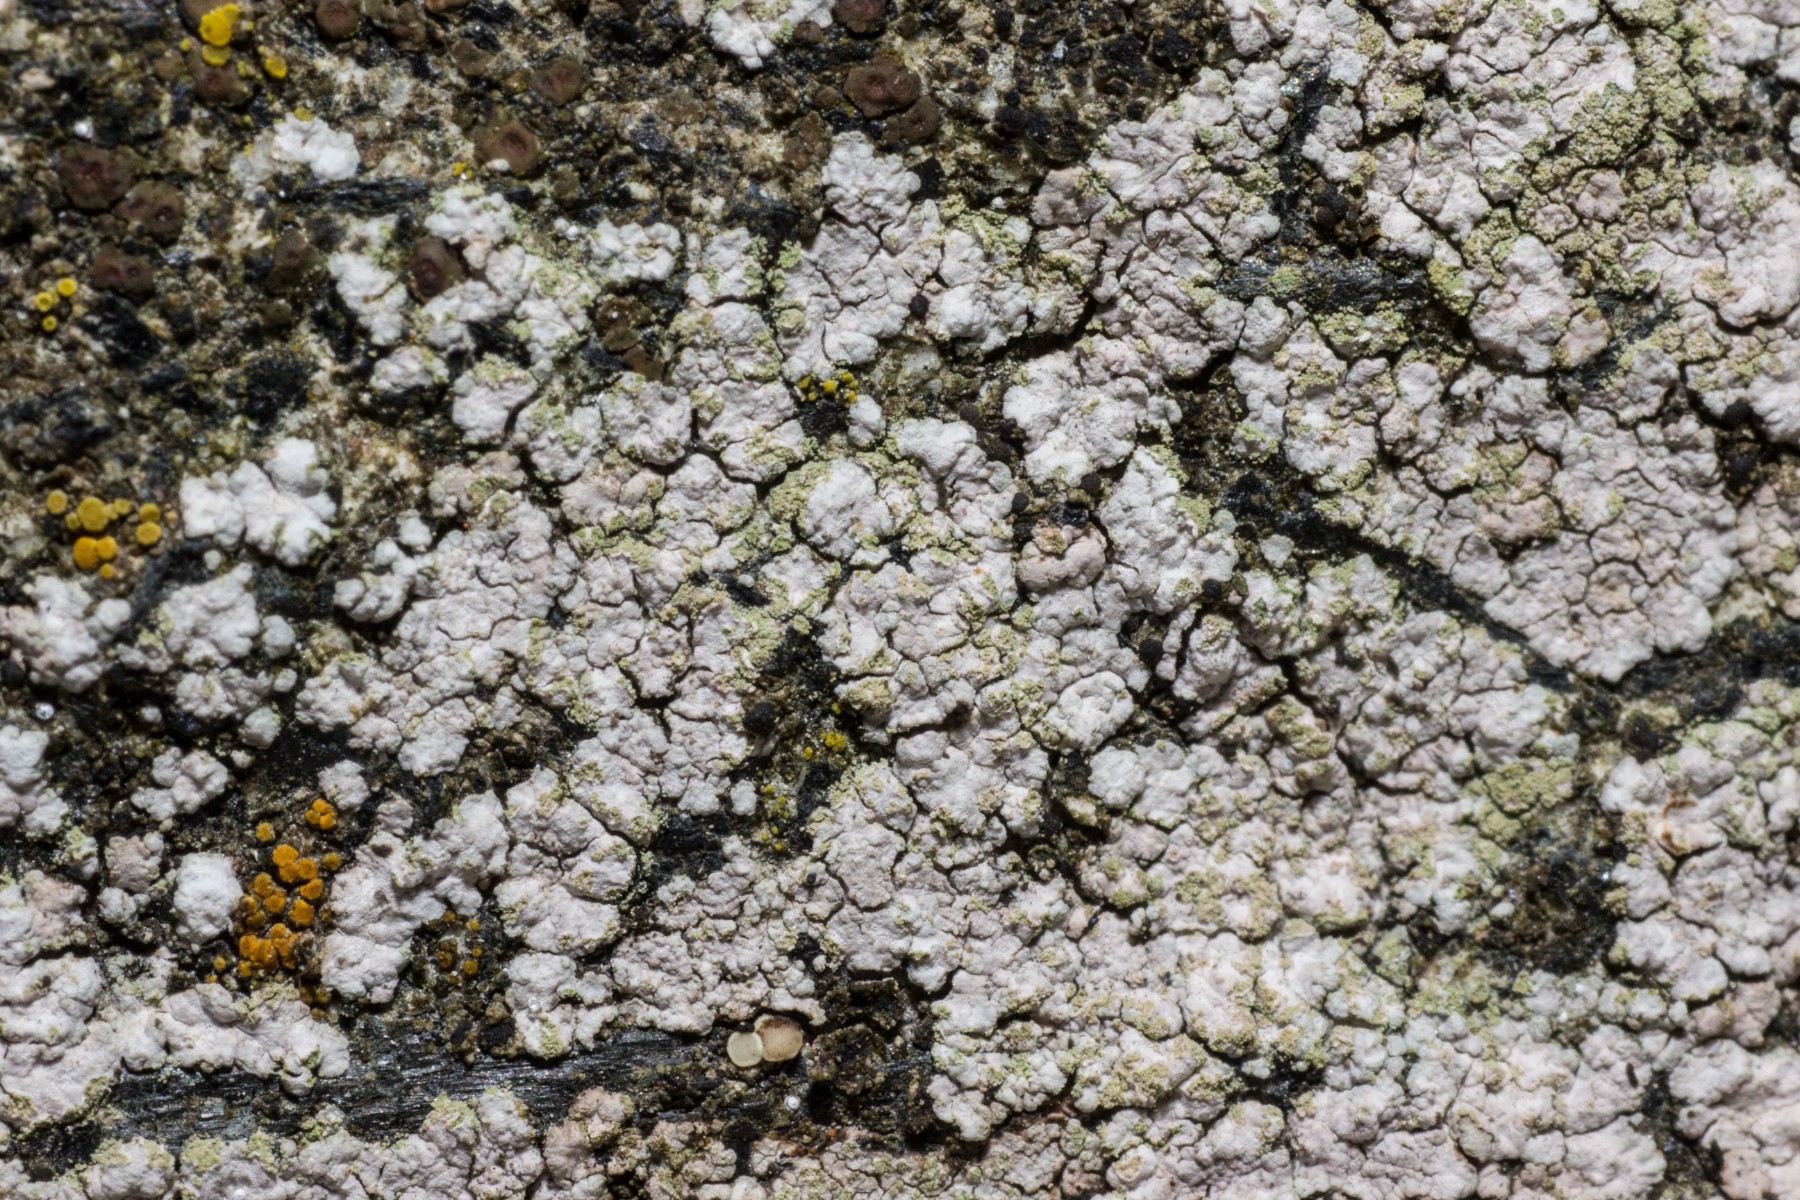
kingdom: Fungi
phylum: Ascomycota
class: Lecanoromycetes
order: Baeomycetales
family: Trapeliaceae
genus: Kleopowiella
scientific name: Kleopowiella placodioides
